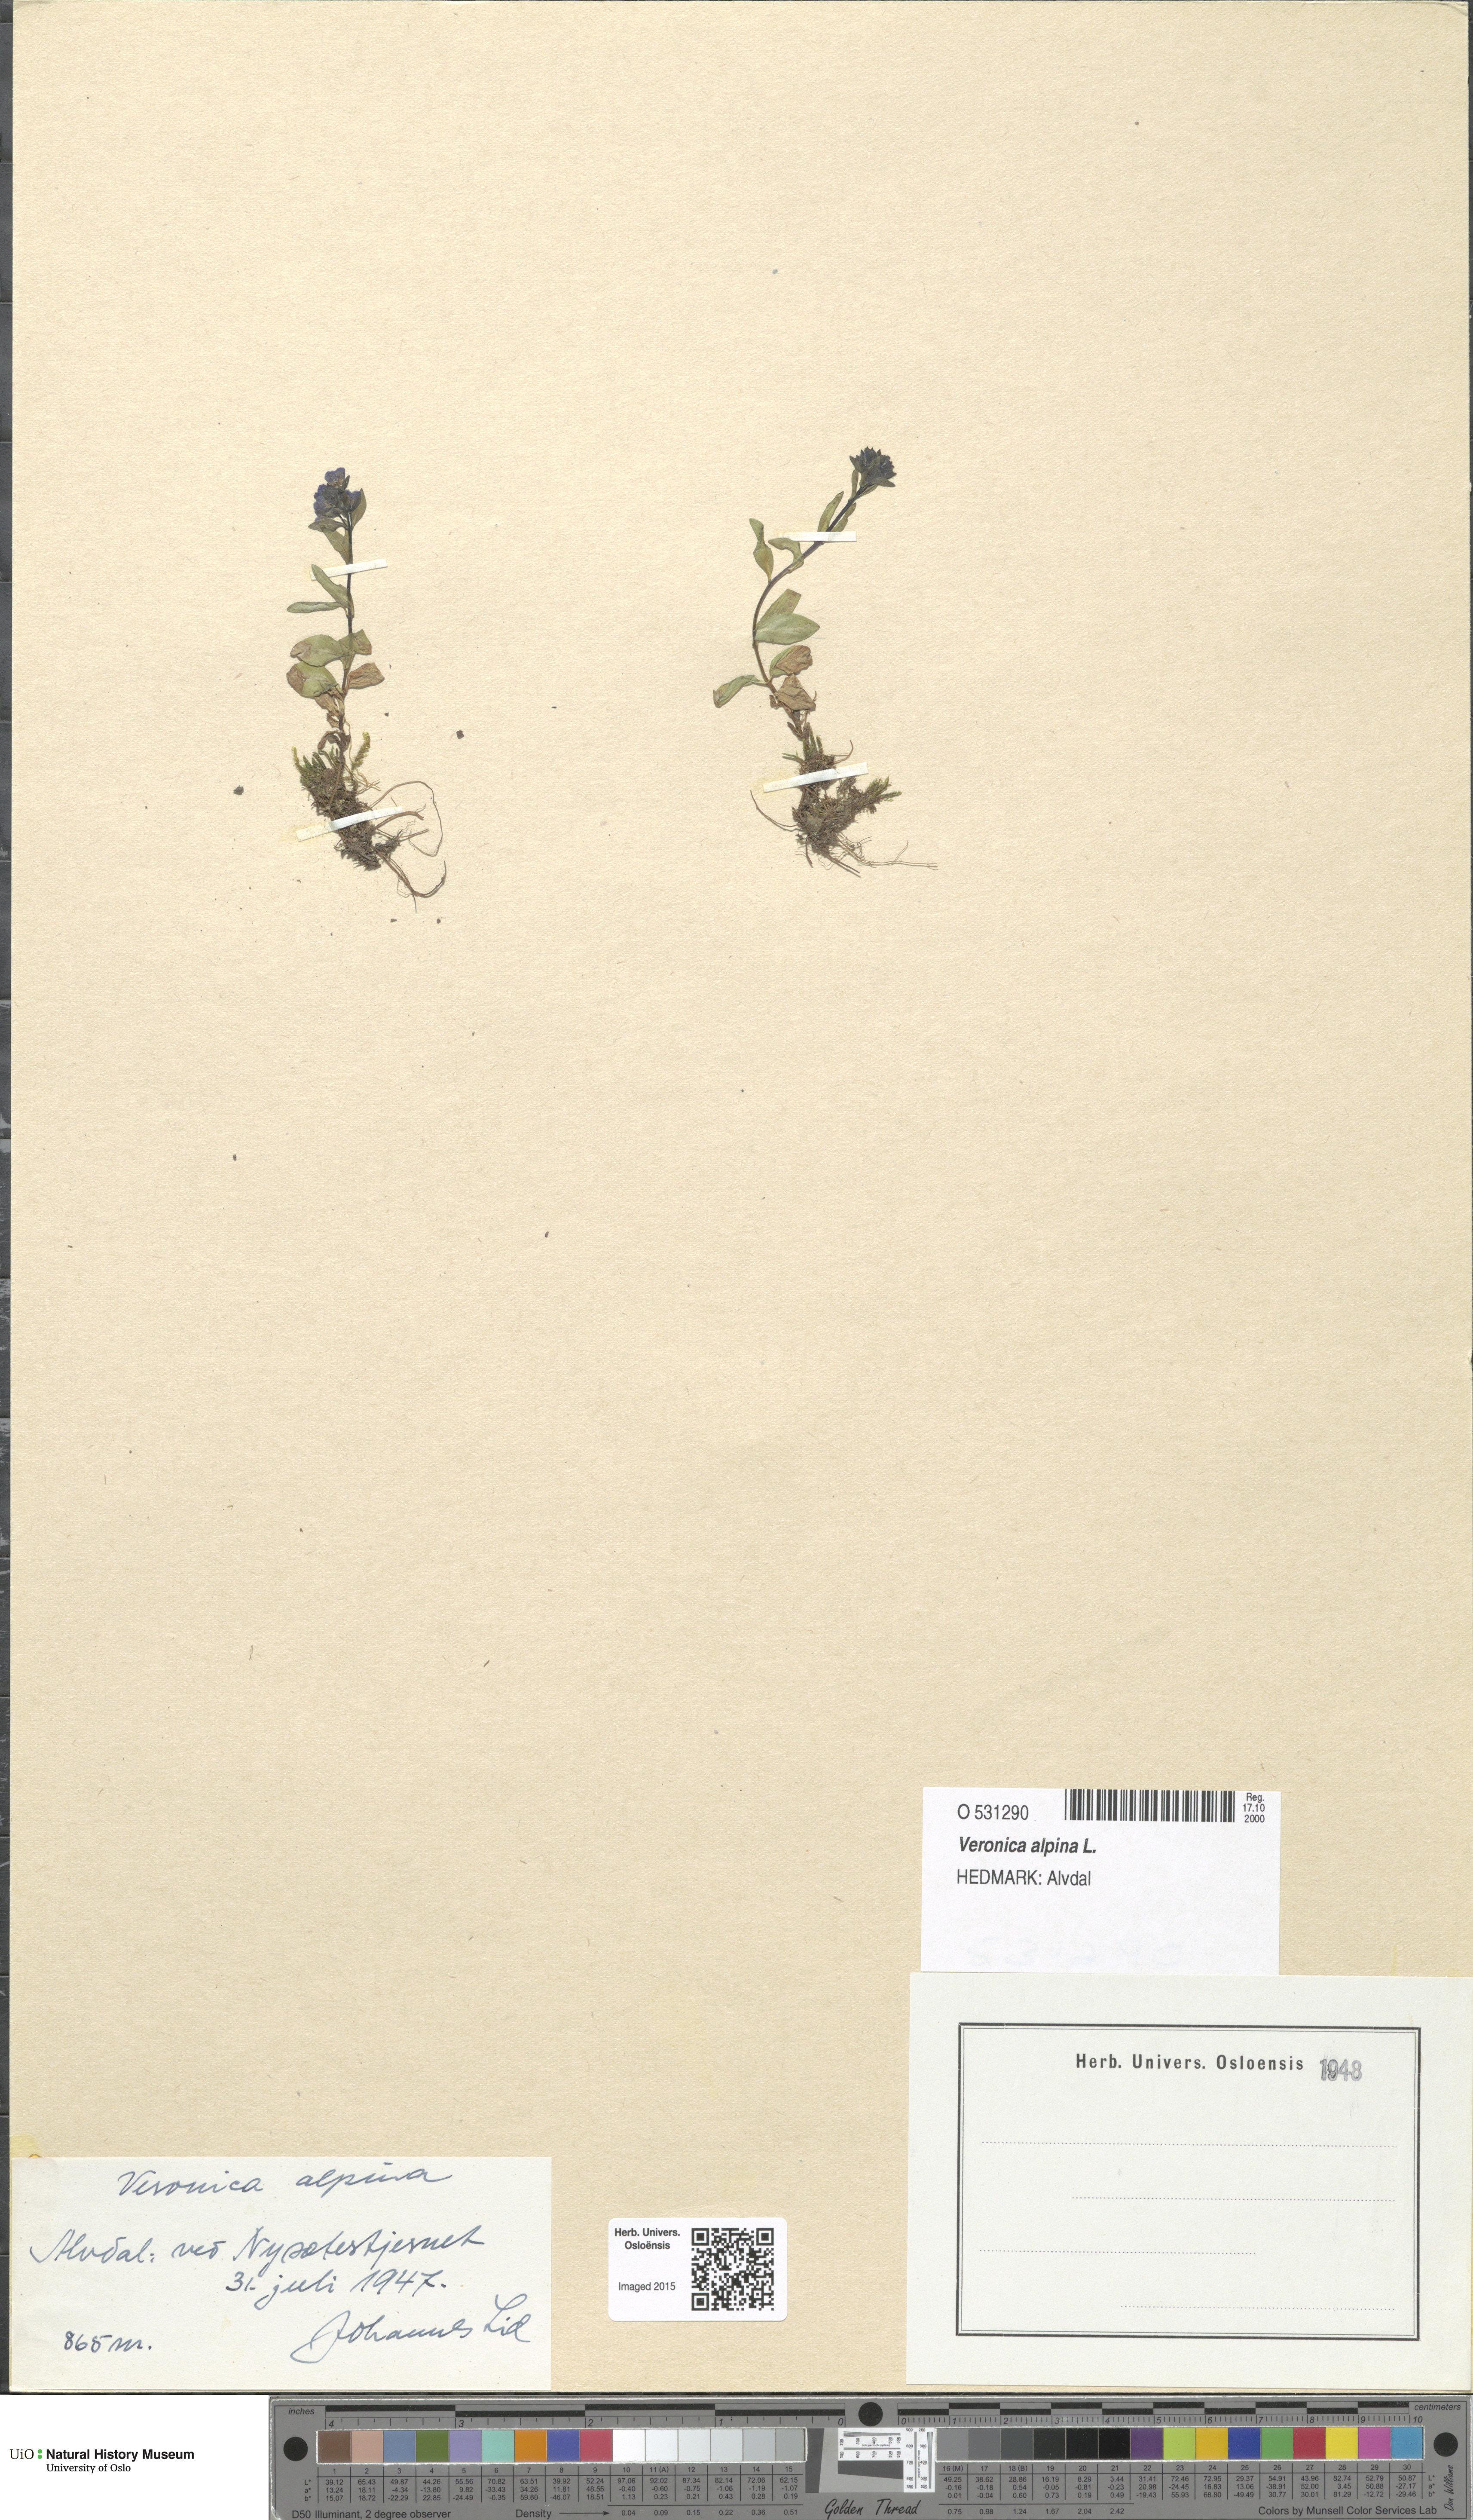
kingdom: Plantae
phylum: Tracheophyta
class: Magnoliopsida
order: Lamiales
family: Plantaginaceae
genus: Veronica
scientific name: Veronica alpina
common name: Alpine speedwell
